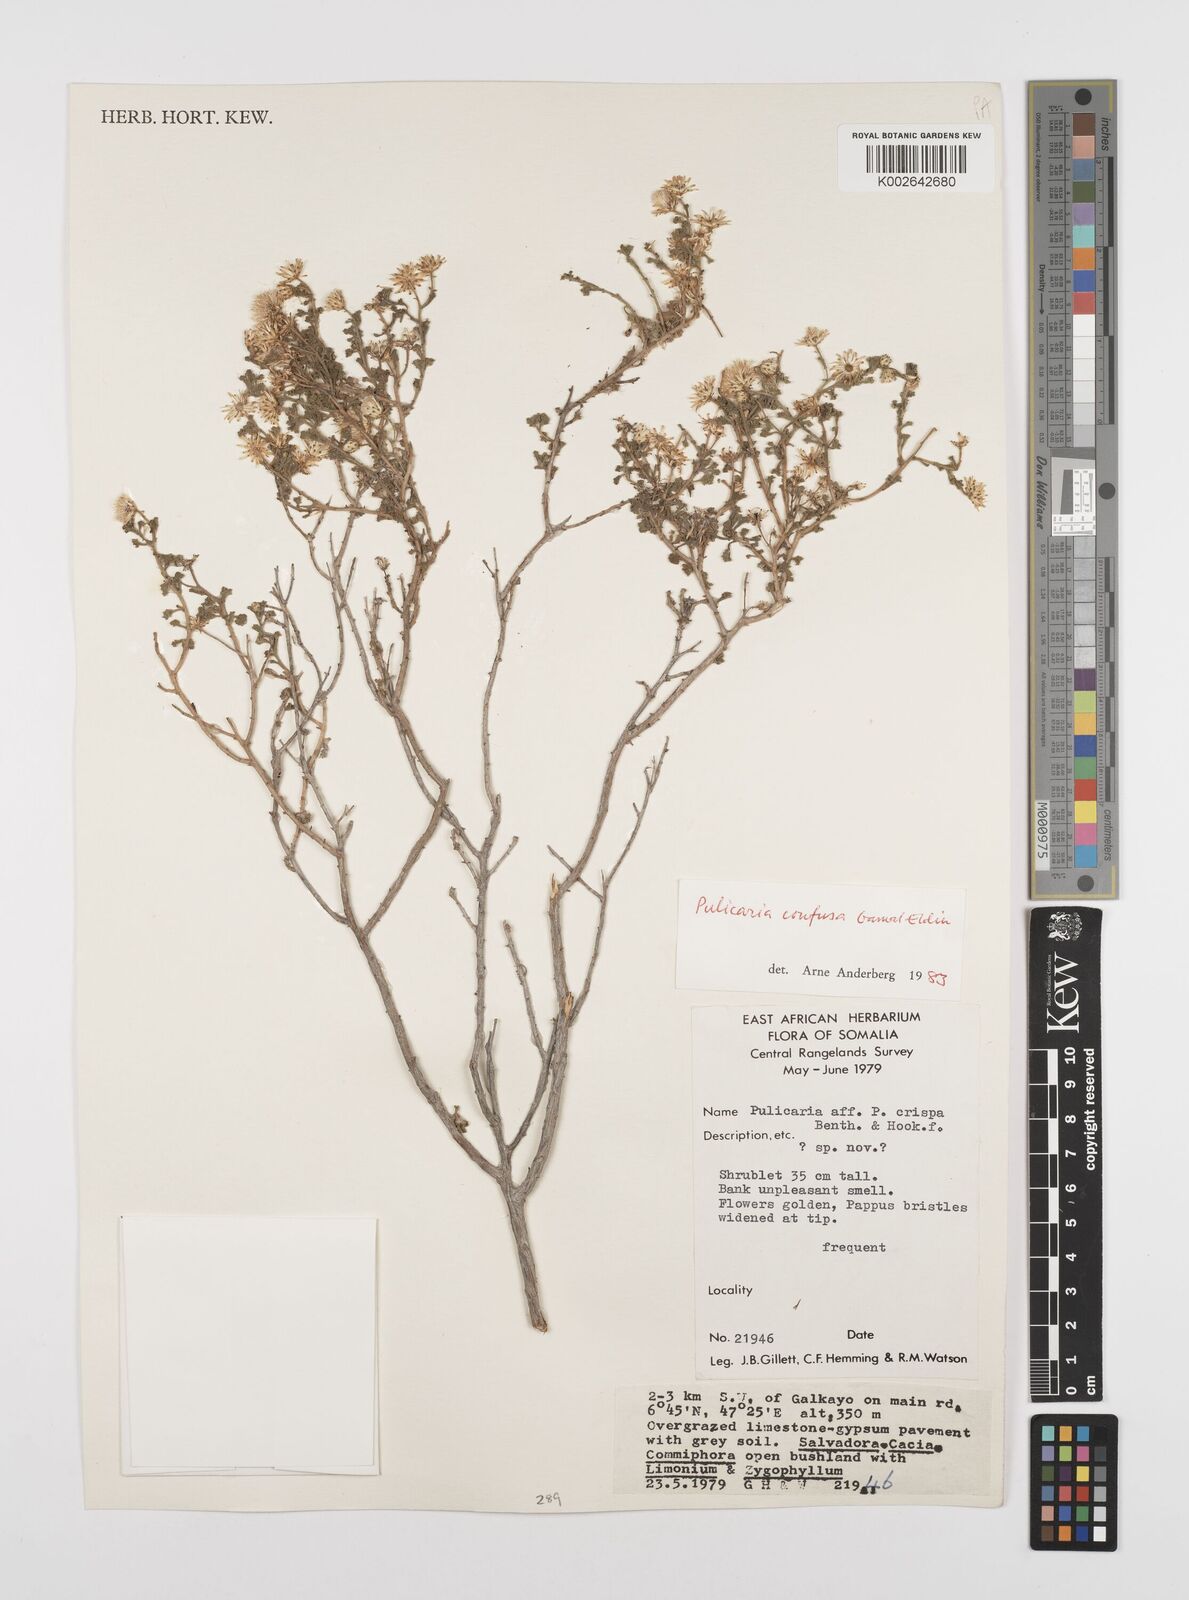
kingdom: Plantae
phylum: Tracheophyta
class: Magnoliopsida
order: Asterales
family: Asteraceae
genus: Pulicaria
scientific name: Pulicaria confusa
